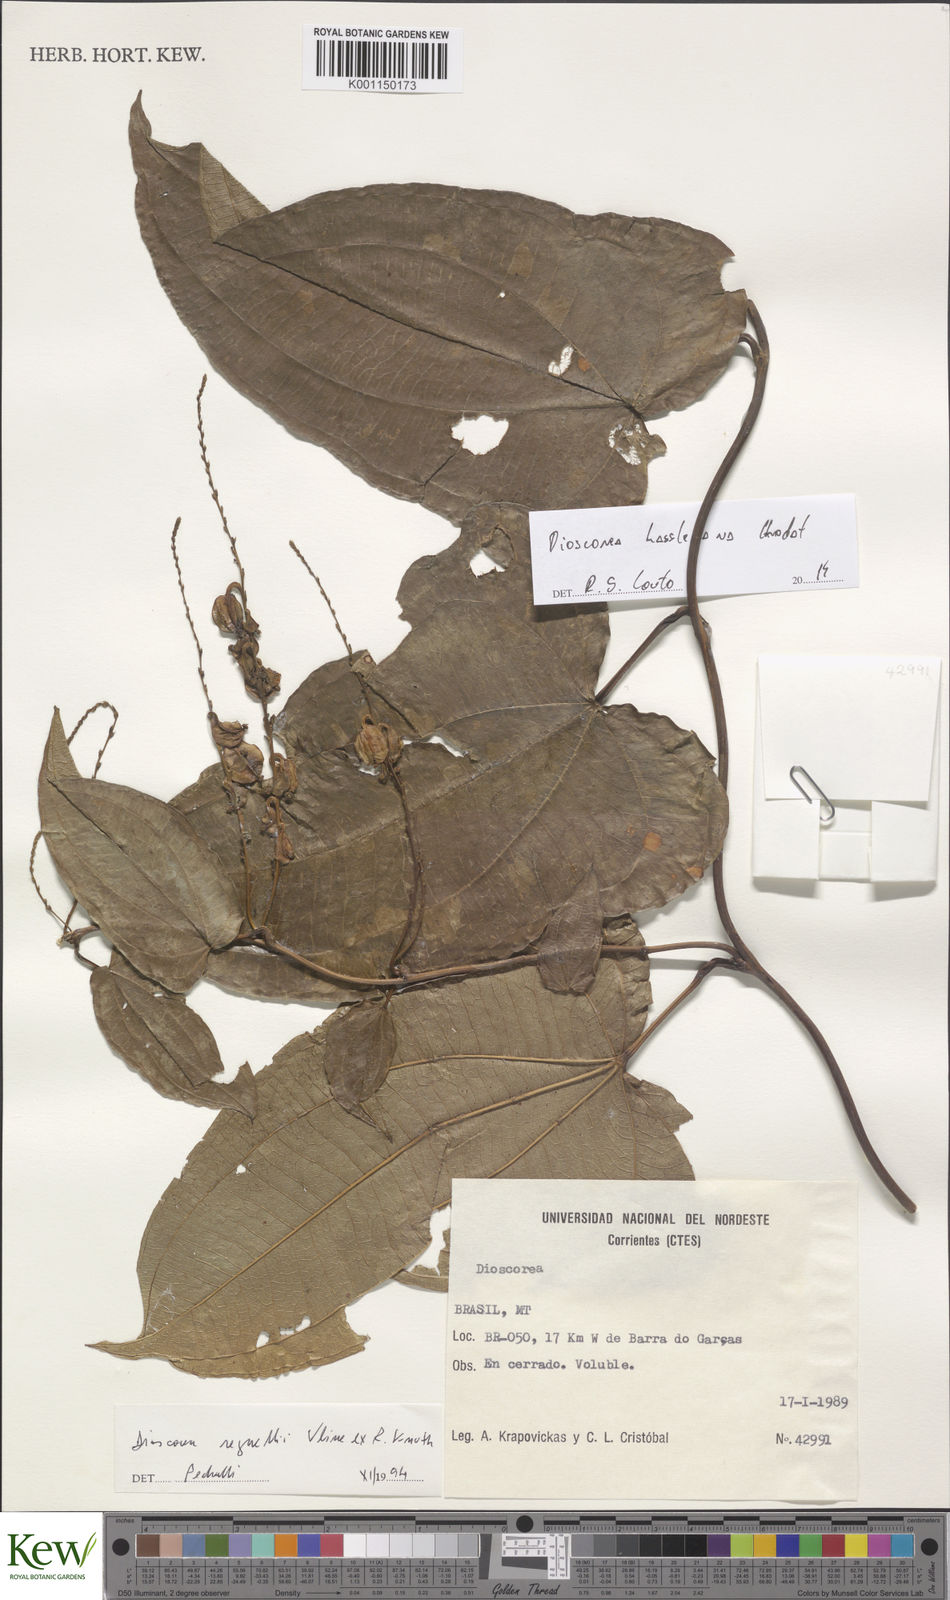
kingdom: Plantae
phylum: Tracheophyta
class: Liliopsida
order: Dioscoreales
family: Dioscoreaceae
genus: Dioscorea
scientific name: Dioscorea
